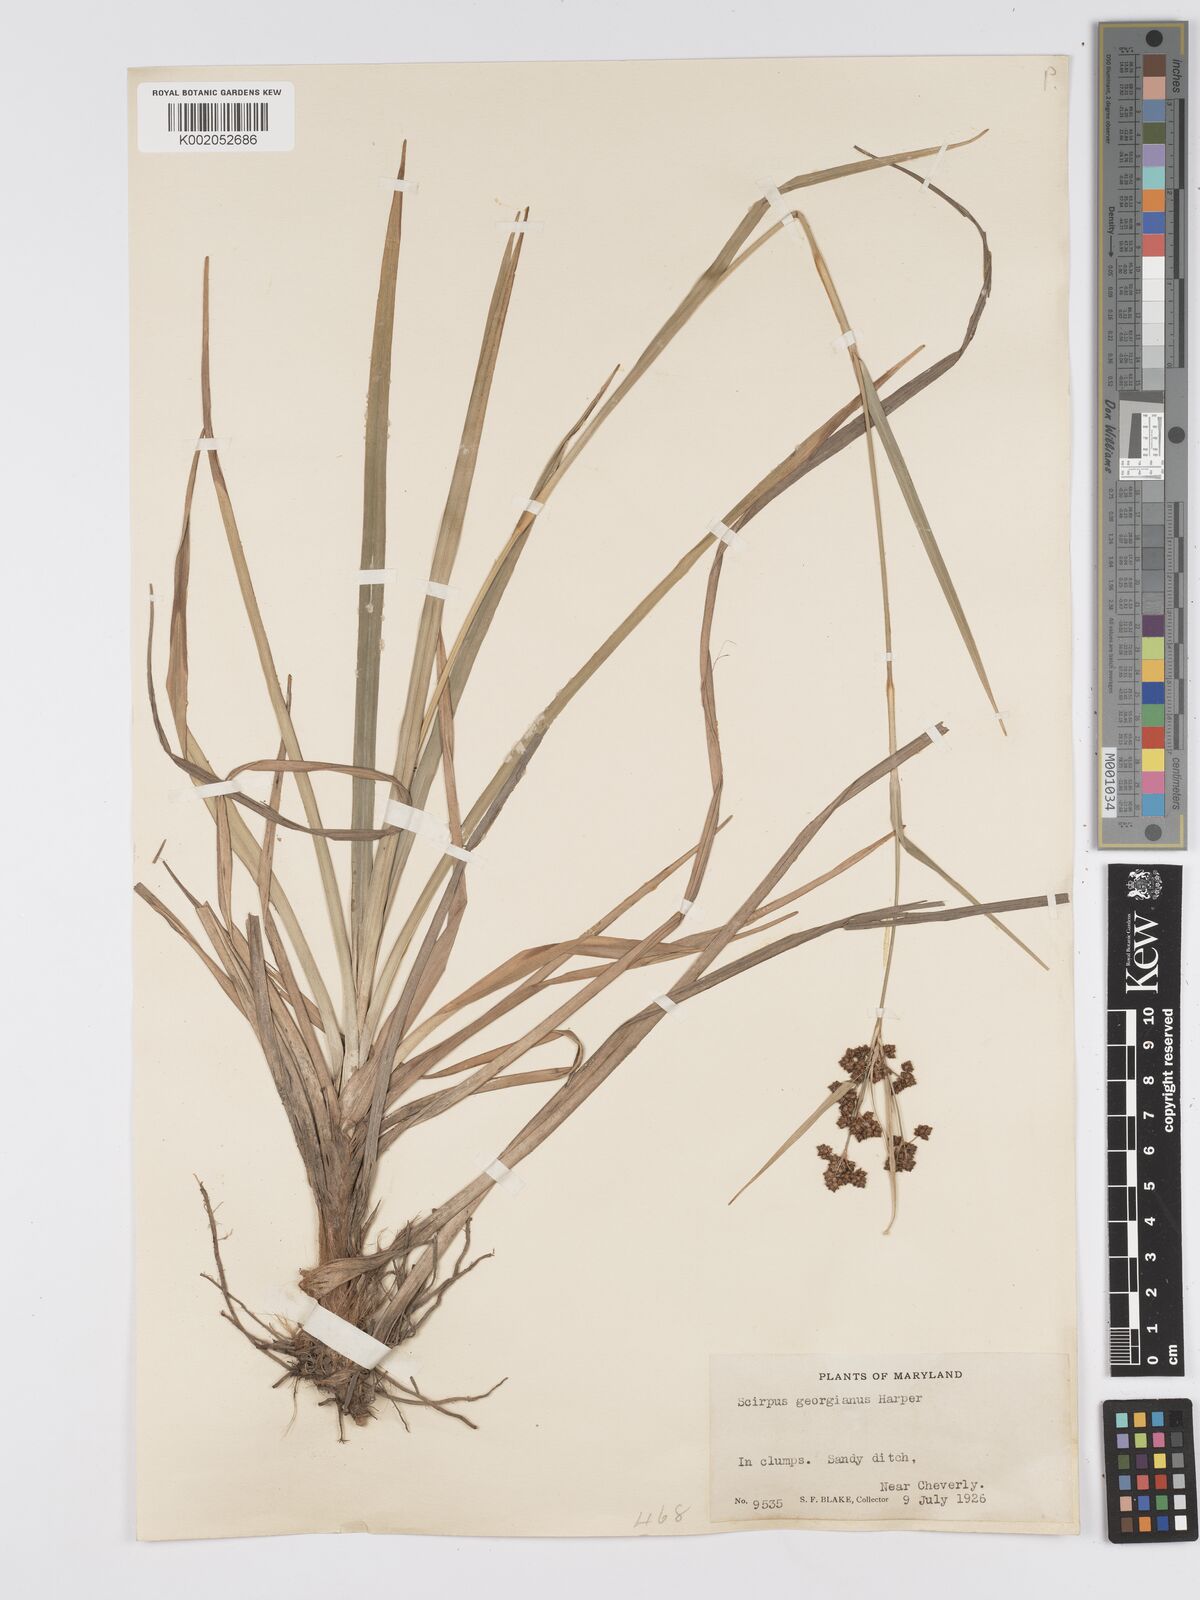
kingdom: Plantae
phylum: Tracheophyta
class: Liliopsida
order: Poales
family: Cyperaceae
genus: Scirpus
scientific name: Scirpus atrovirens
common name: Black bulrush
